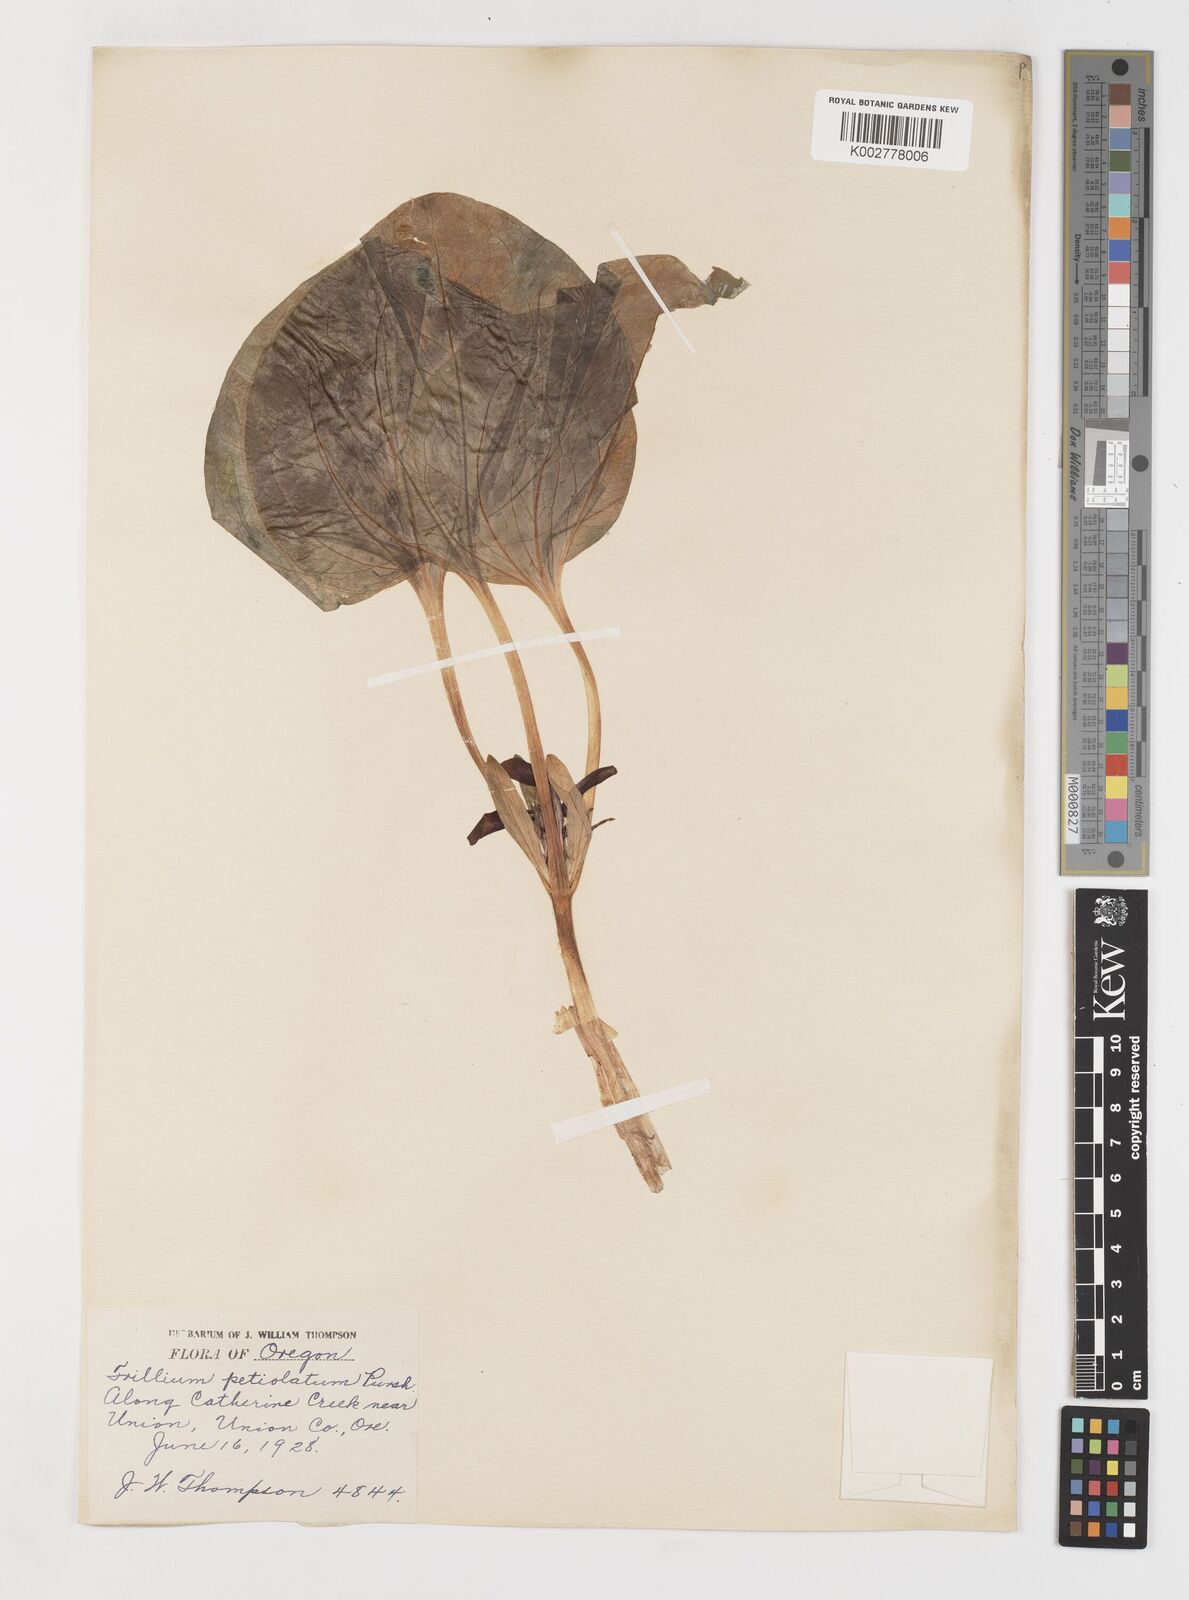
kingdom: Plantae
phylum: Tracheophyta
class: Liliopsida
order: Liliales
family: Melanthiaceae
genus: Trillium
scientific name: Trillium petiolatum
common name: Idaho trillium
